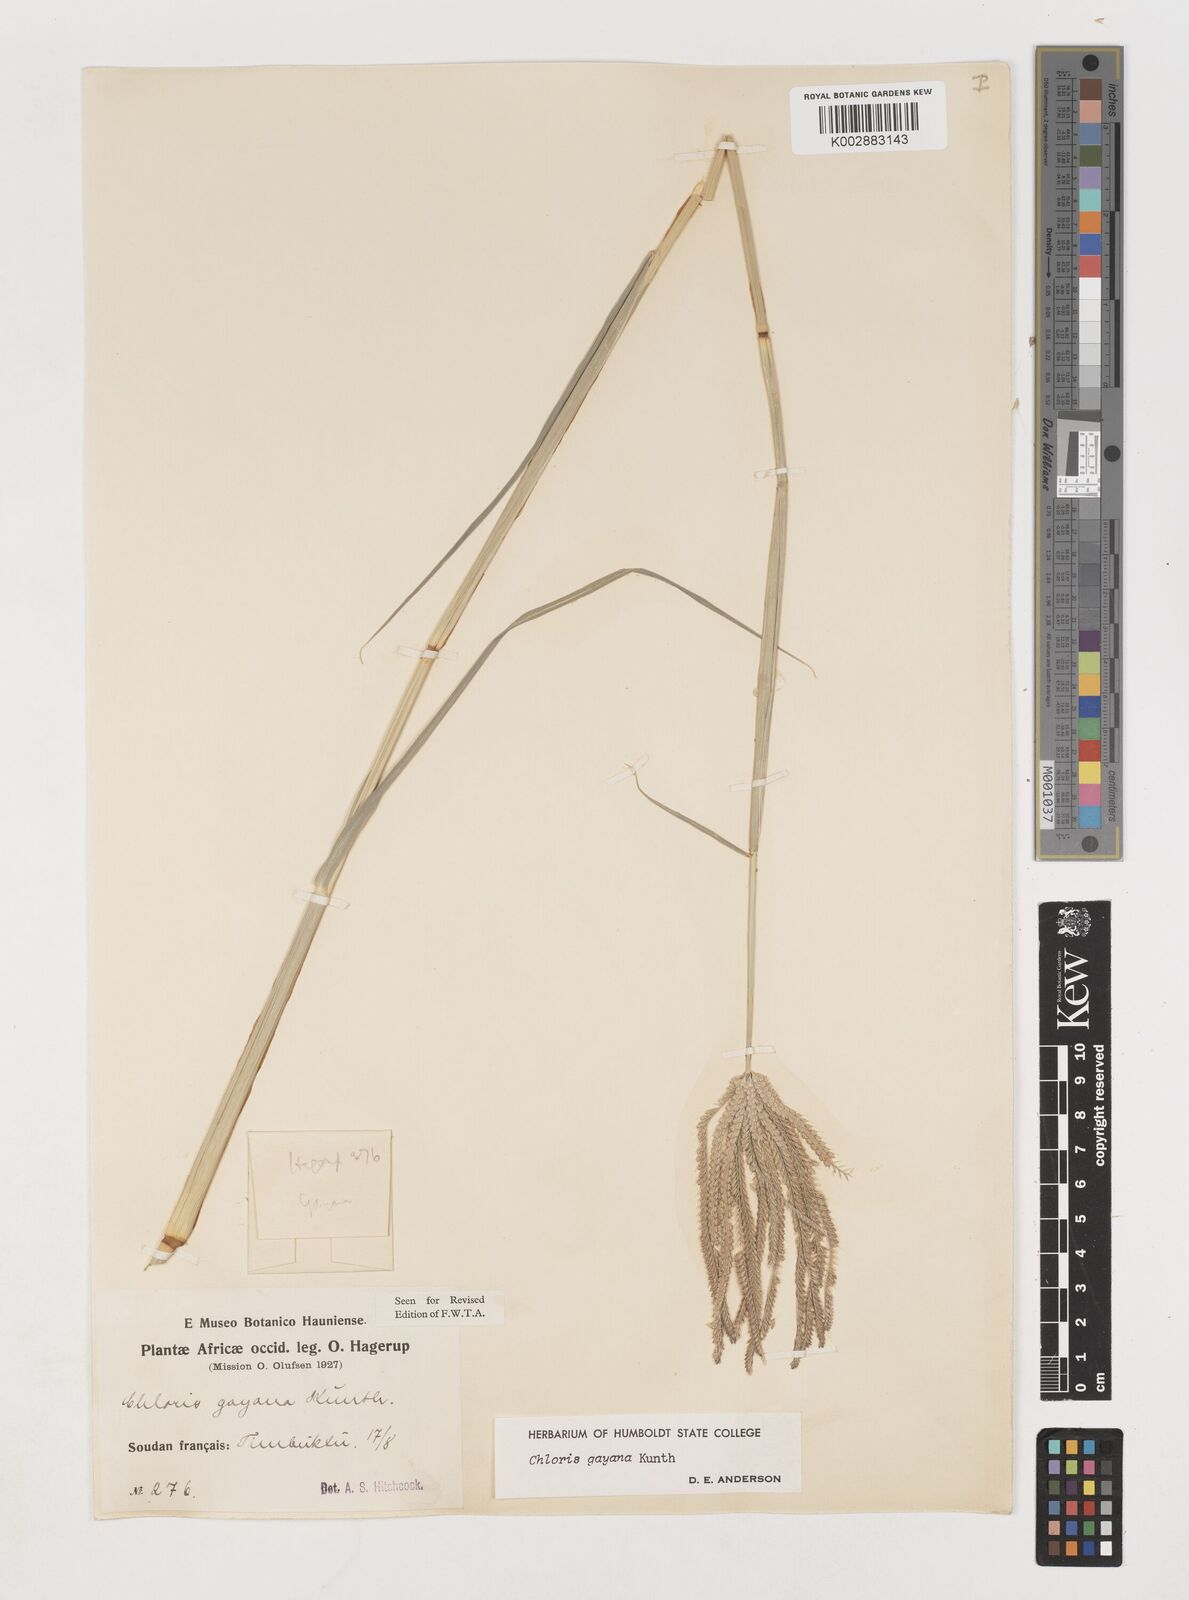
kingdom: Plantae
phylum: Tracheophyta
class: Liliopsida
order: Poales
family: Poaceae
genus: Chloris
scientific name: Chloris gayana
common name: Rhodes grass
